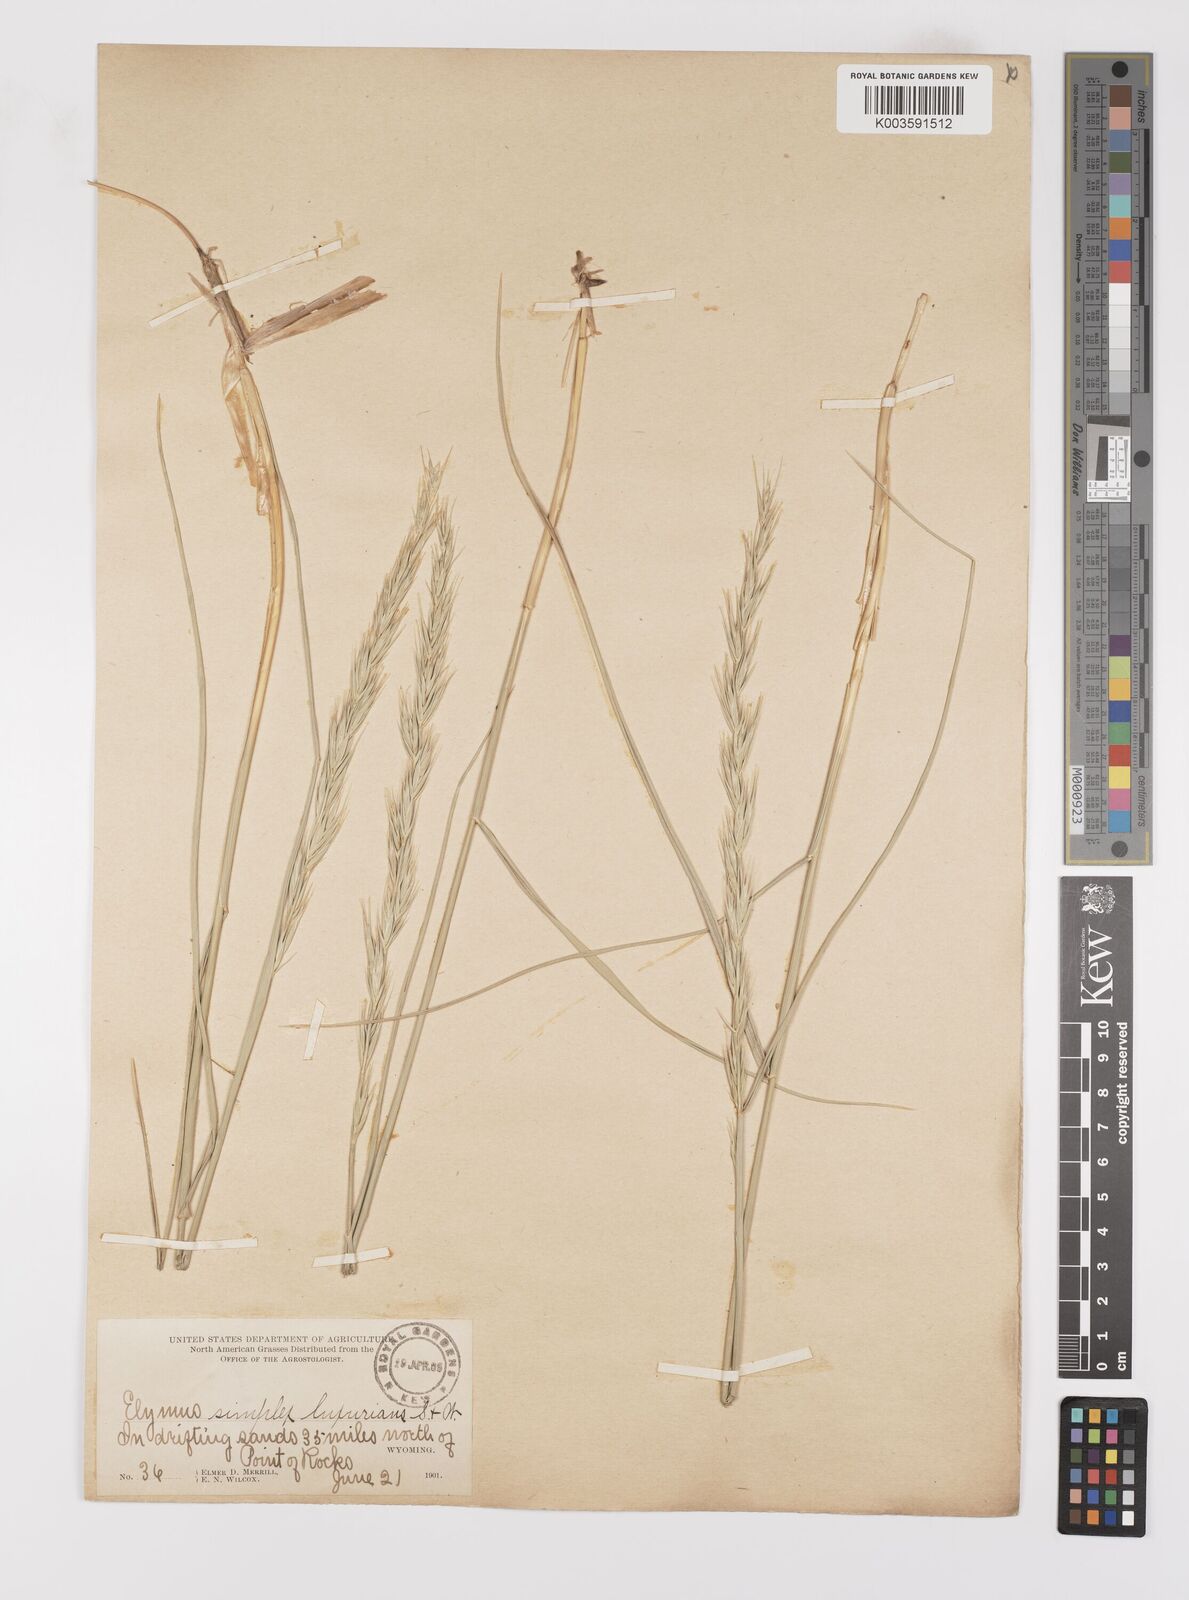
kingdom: Plantae
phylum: Tracheophyta
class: Liliopsida
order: Poales
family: Poaceae
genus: Leymus
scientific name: Leymus triticoides
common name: Beardless wild rye
